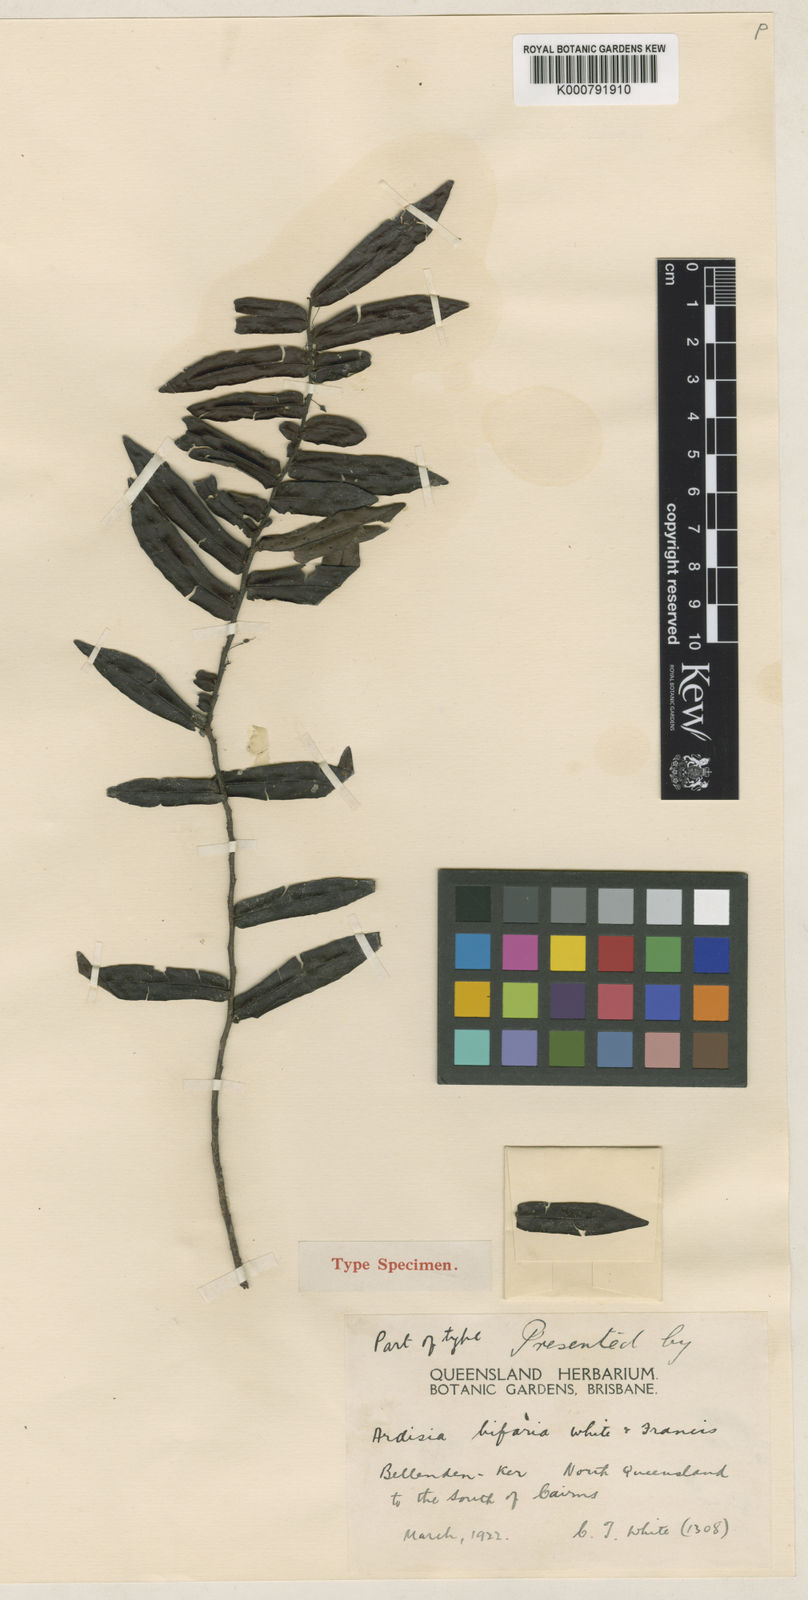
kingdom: Plantae
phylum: Tracheophyta
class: Magnoliopsida
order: Ericales
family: Primulaceae
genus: Ardisia
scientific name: Ardisia bifaria
